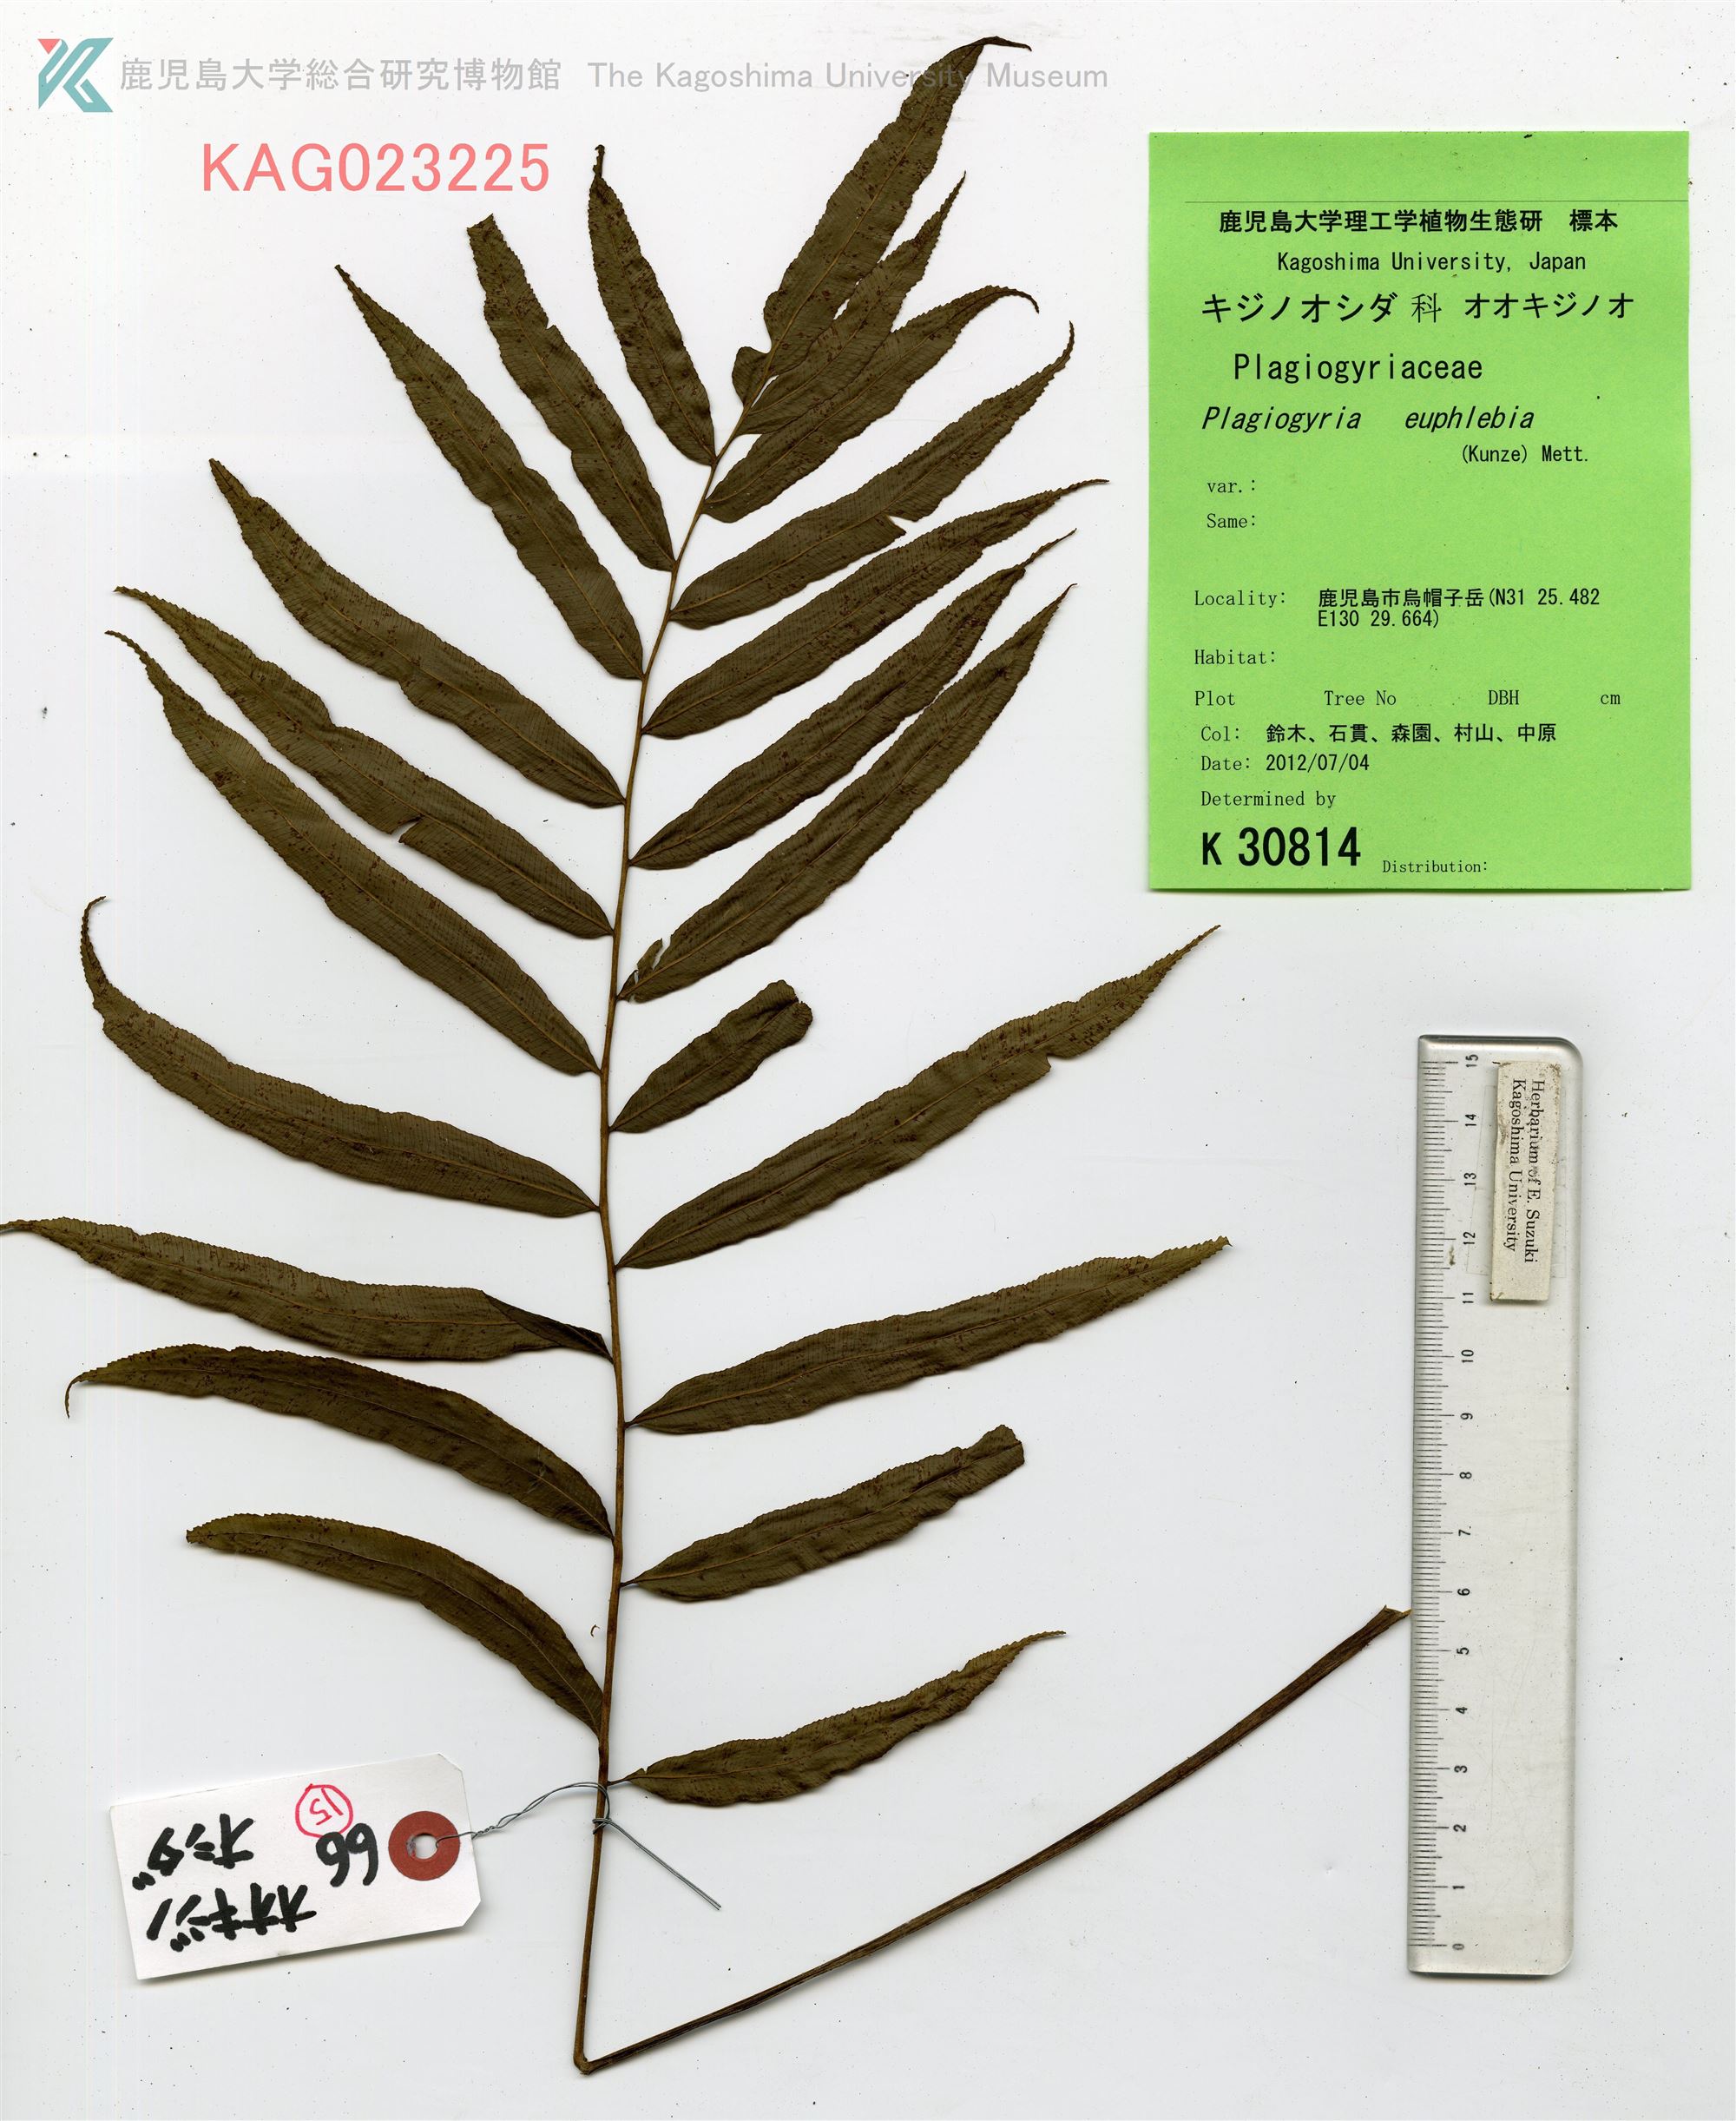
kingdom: Plantae
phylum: Tracheophyta
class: Polypodiopsida
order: Cyatheales
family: Plagiogyriaceae
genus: Plagiogyria
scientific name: Plagiogyria euphlebia
